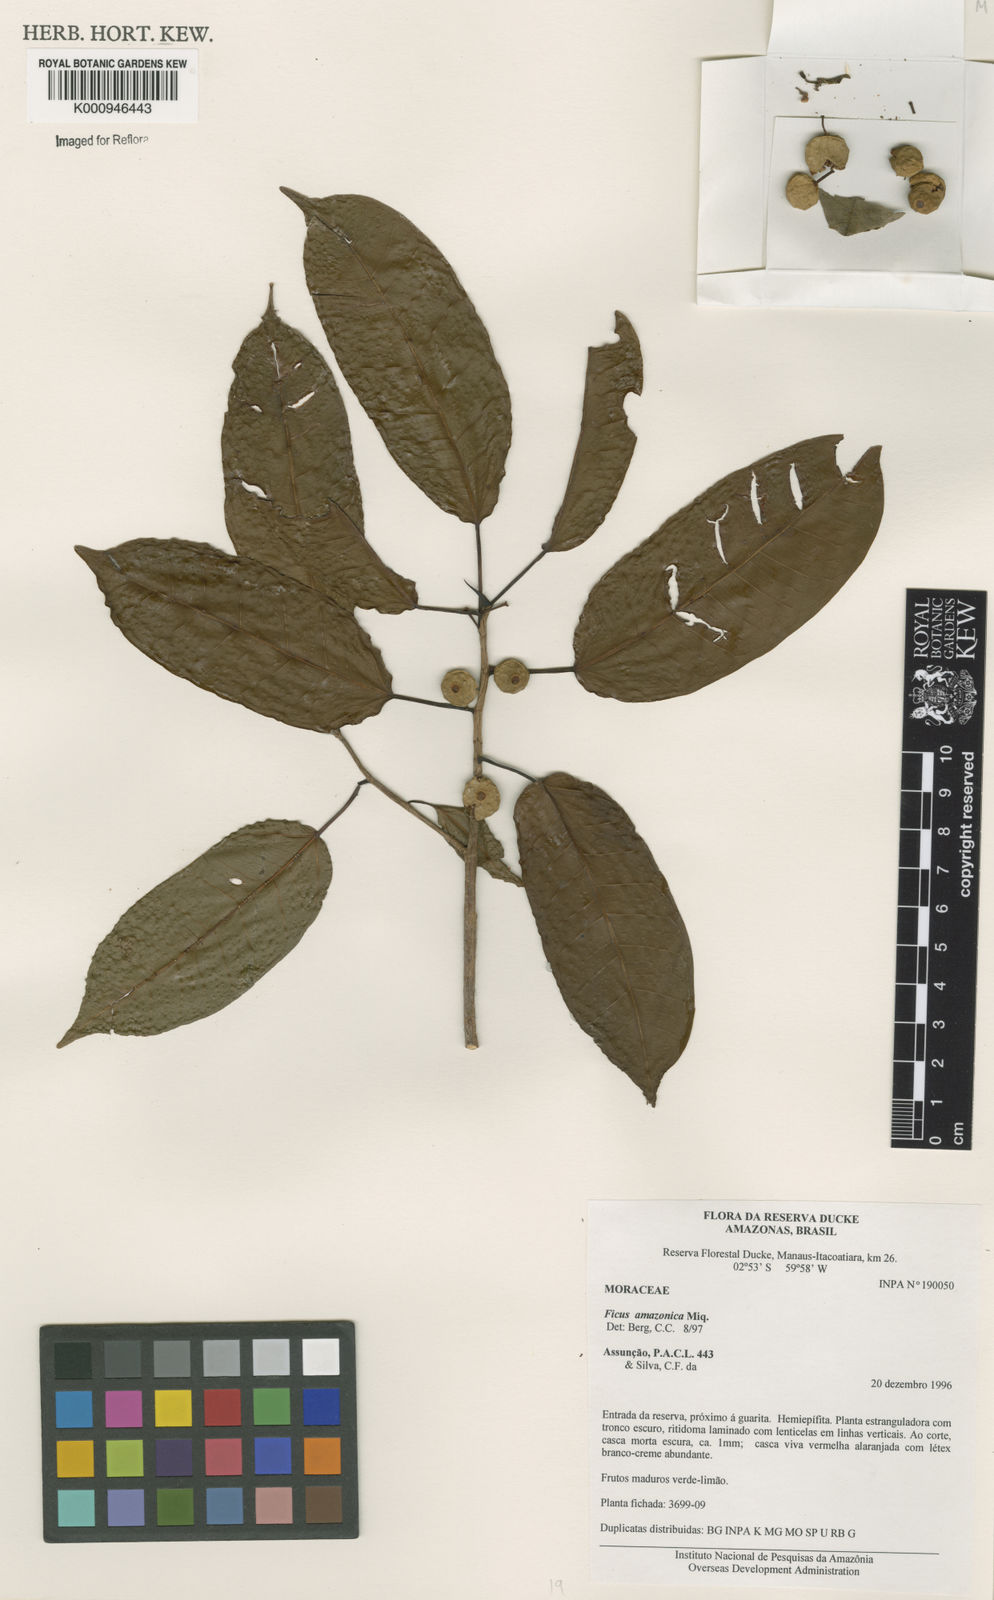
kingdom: Plantae
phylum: Tracheophyta
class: Magnoliopsida
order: Rosales
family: Moraceae
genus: Ficus
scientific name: Ficus krukovii
